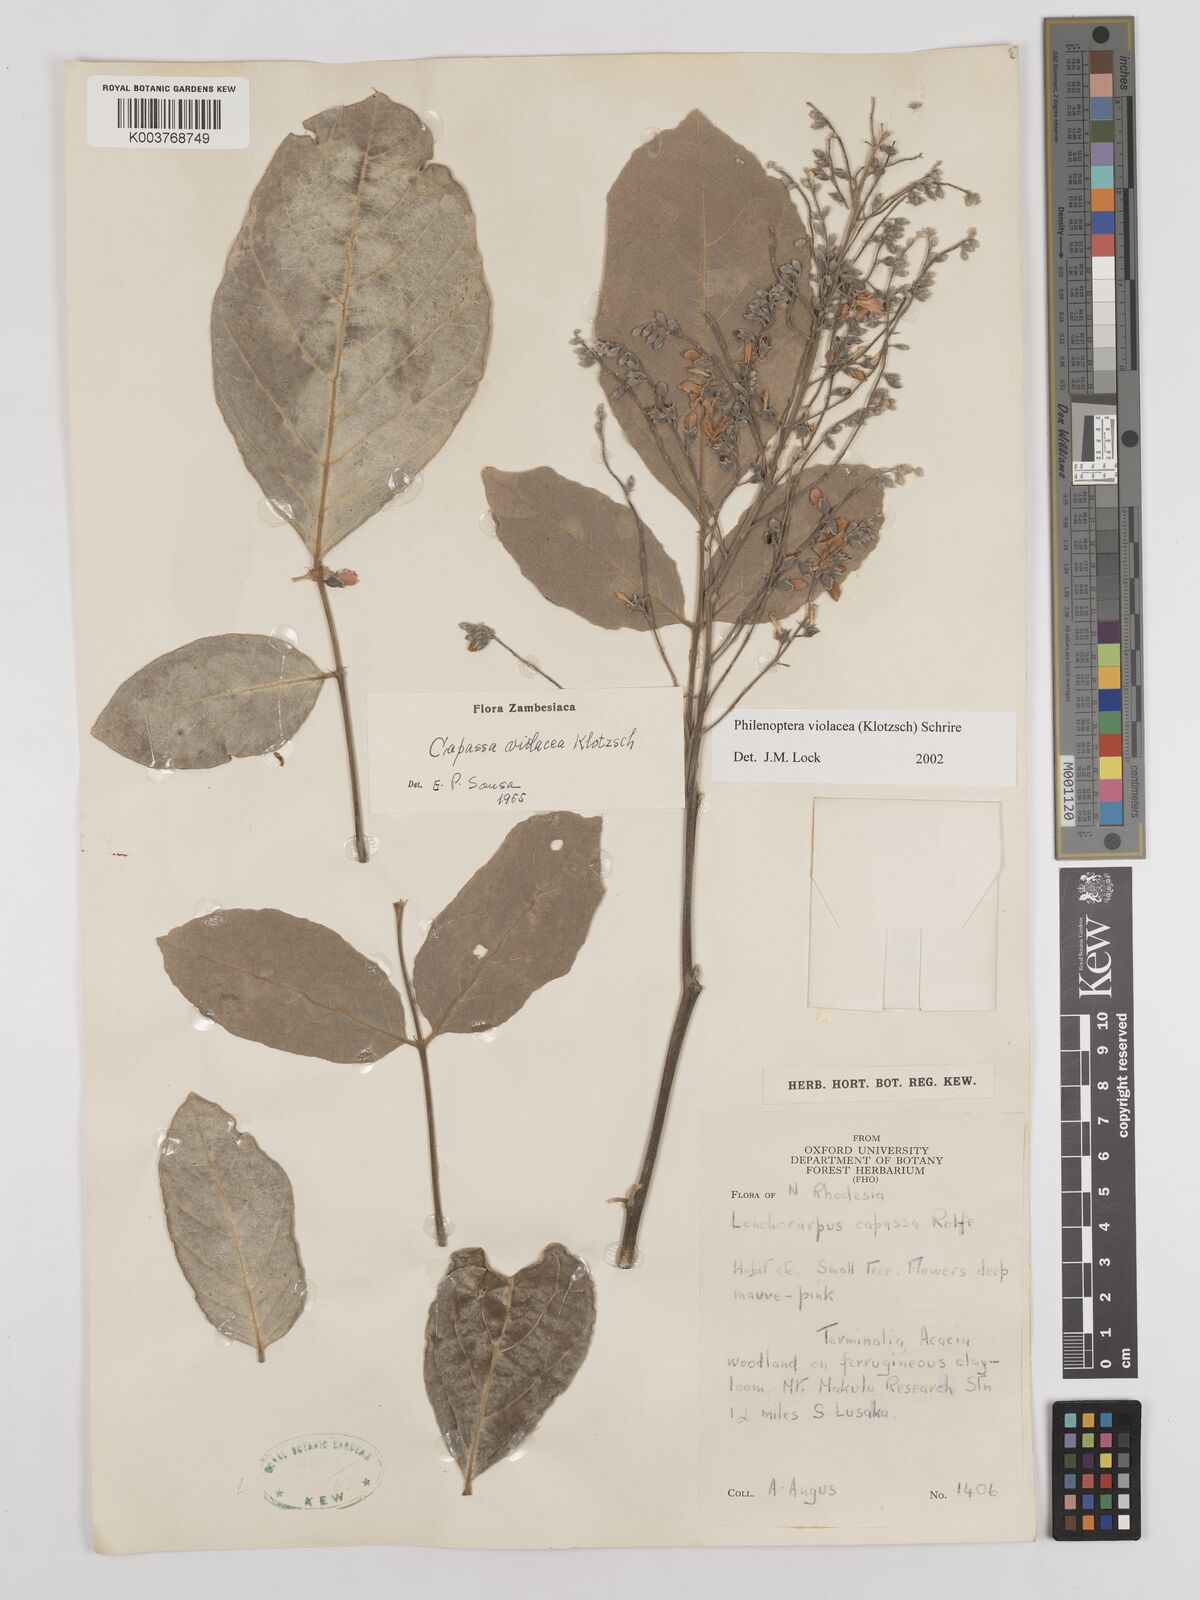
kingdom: Plantae
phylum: Tracheophyta
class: Magnoliopsida
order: Fabales
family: Fabaceae
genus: Philenoptera
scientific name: Philenoptera violacea
